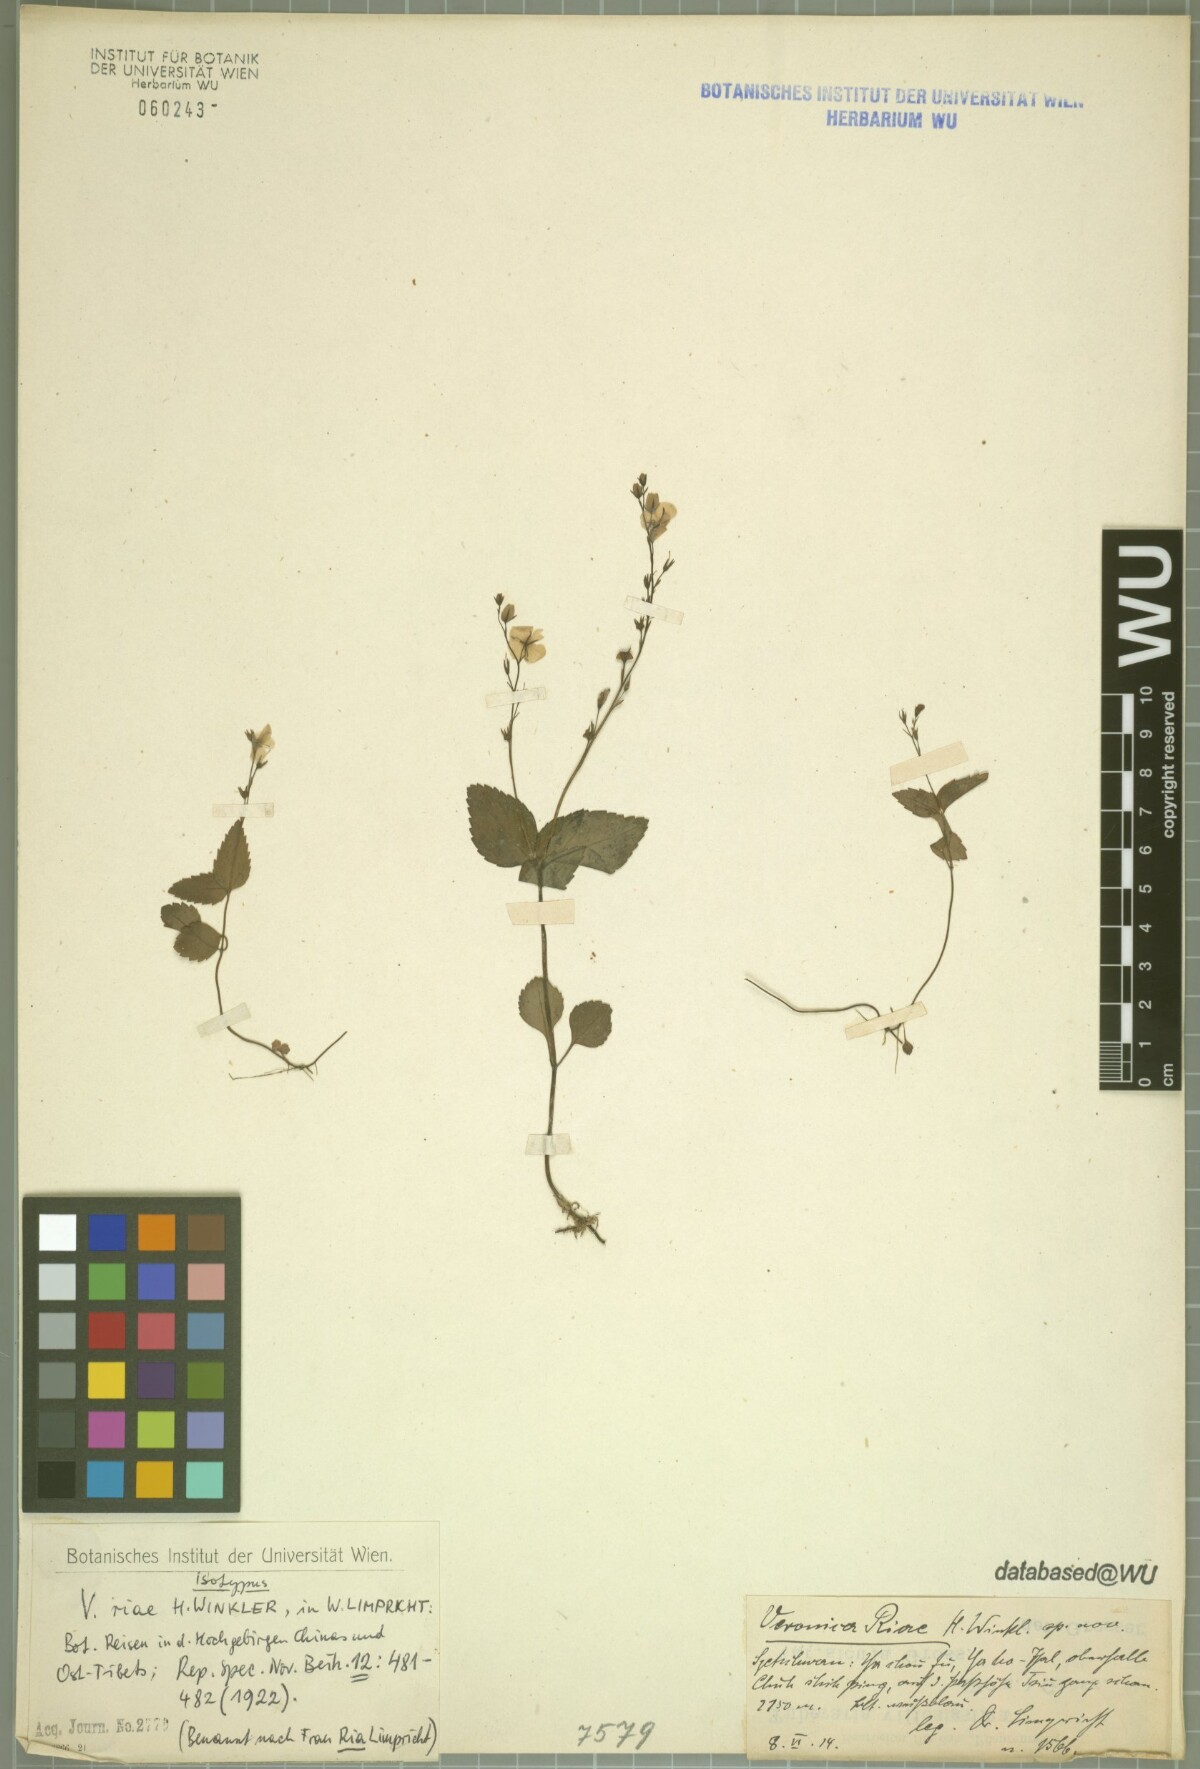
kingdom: Plantae
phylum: Tracheophyta
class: Magnoliopsida
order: Lamiales
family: Plantaginaceae
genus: Veronica
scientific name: Veronica riae
